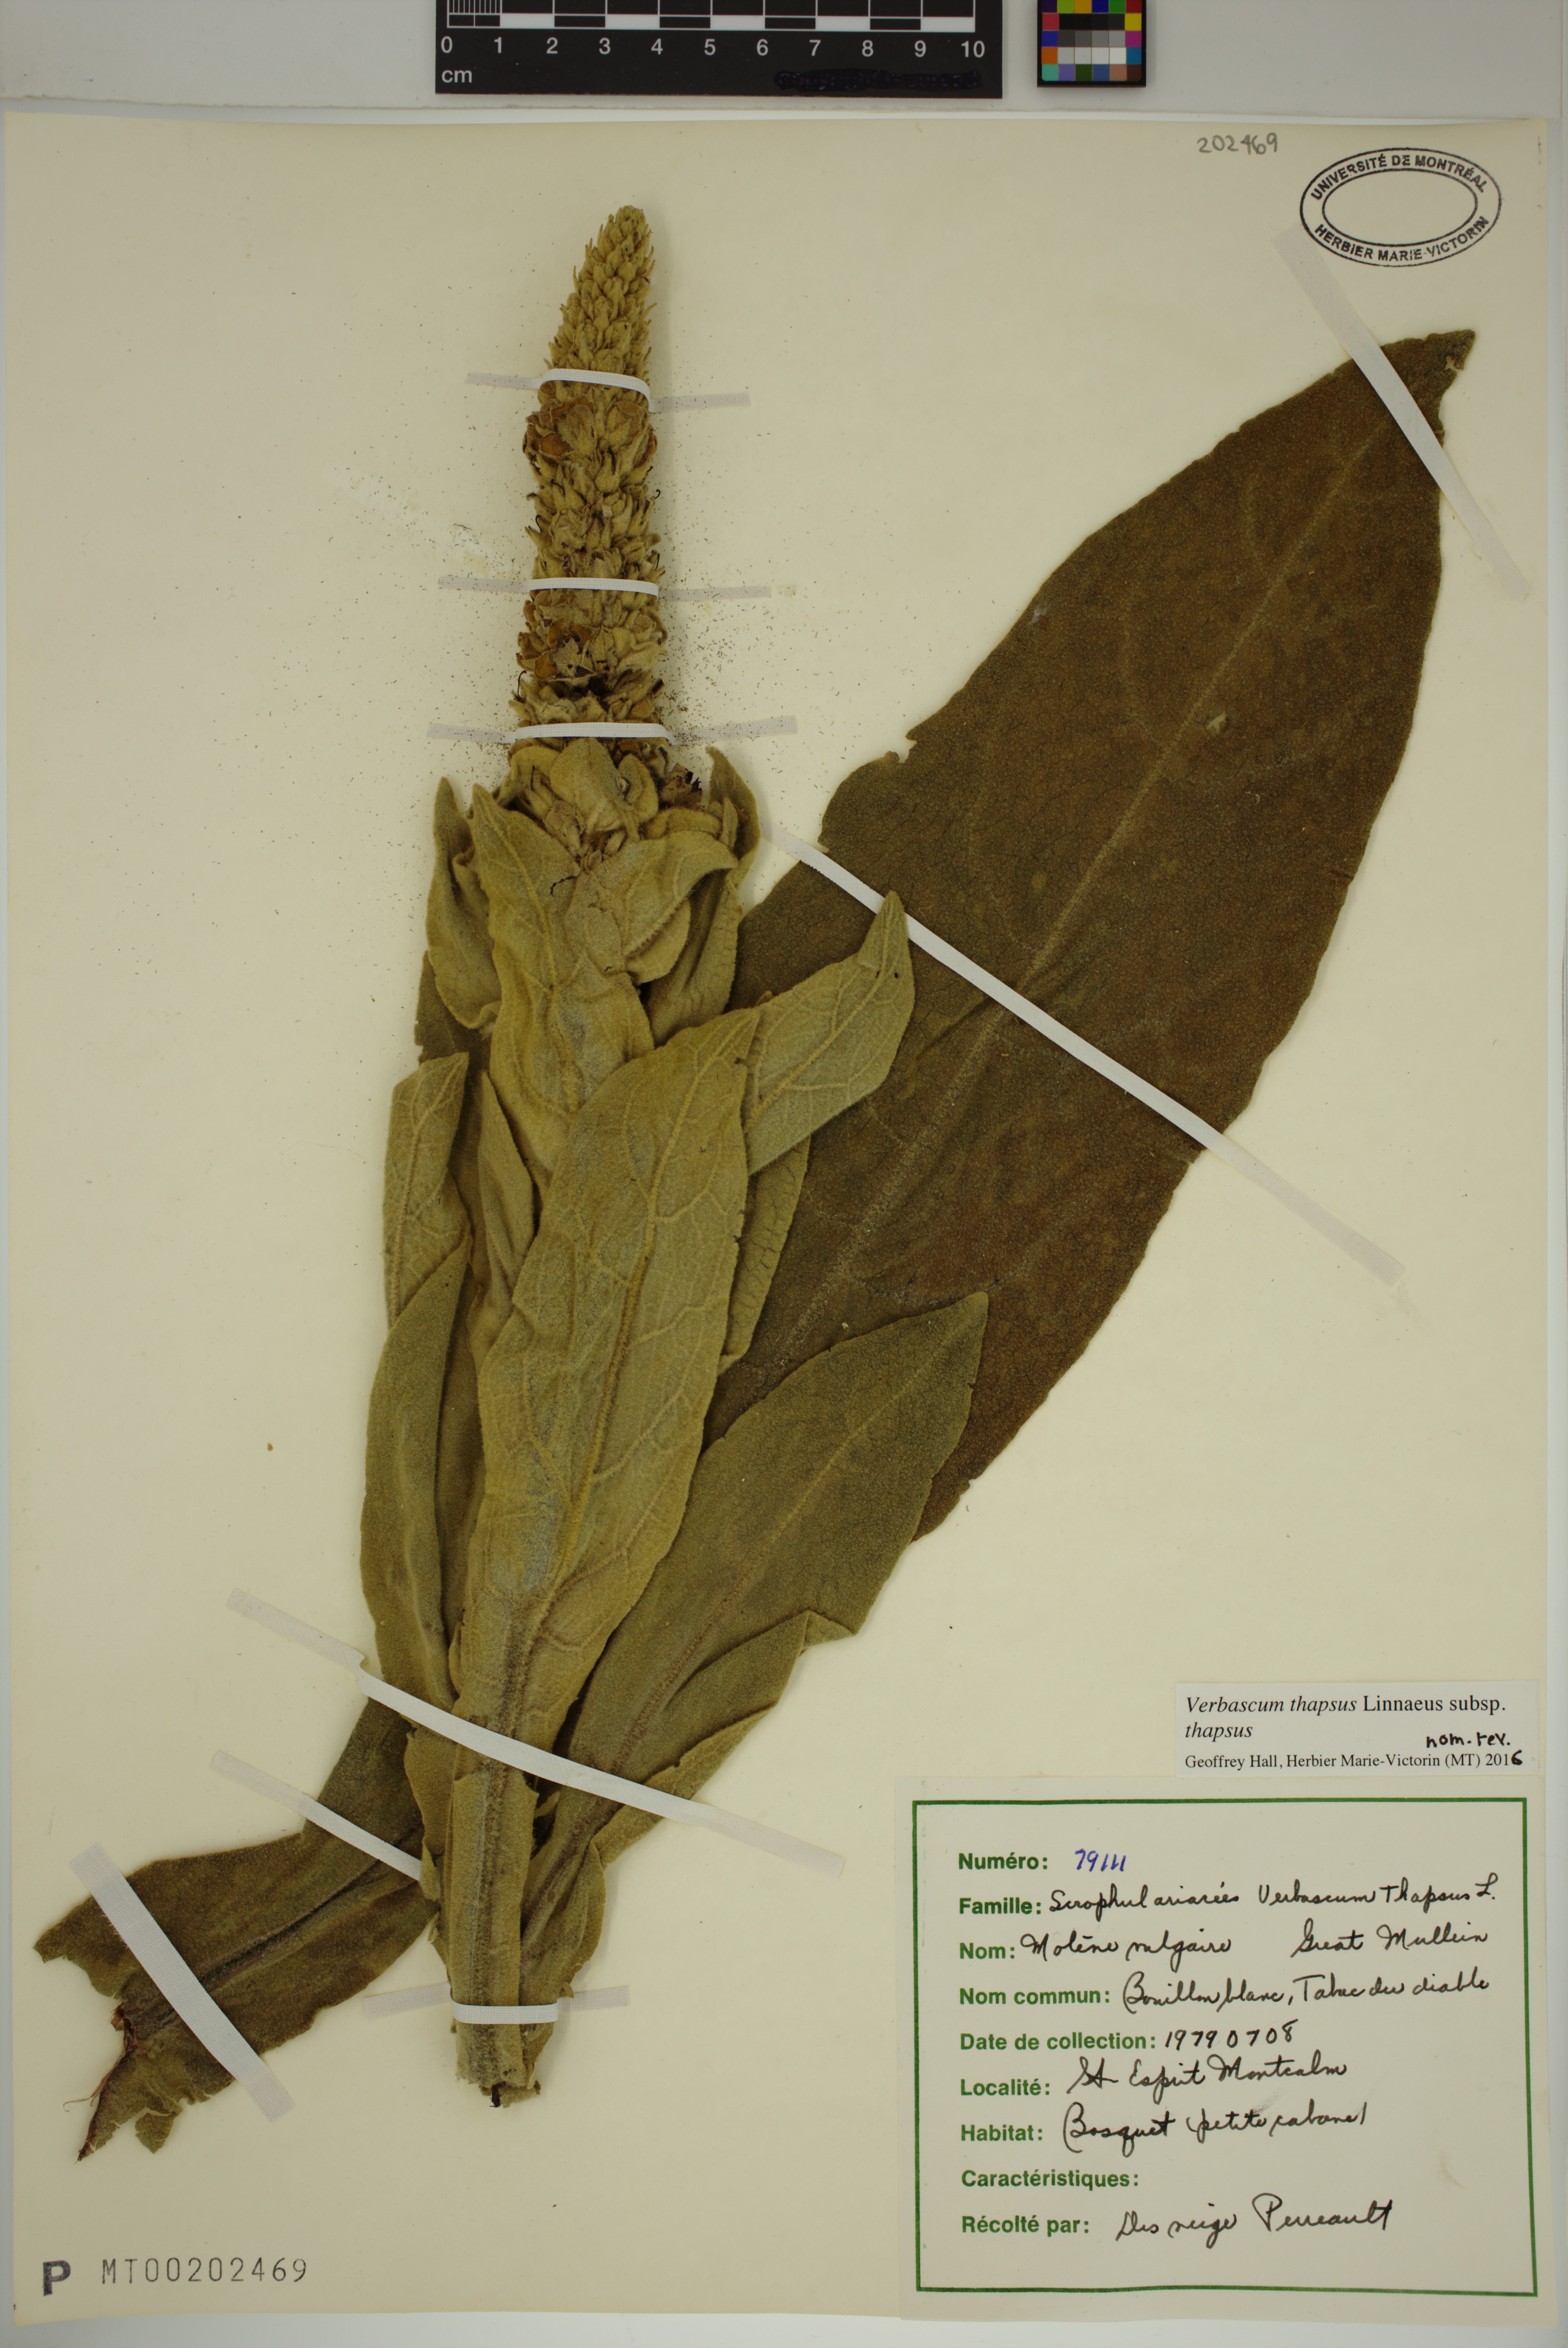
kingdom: Plantae
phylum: Tracheophyta
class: Magnoliopsida
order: Lamiales
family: Scrophulariaceae
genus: Verbascum
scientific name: Verbascum thapsus
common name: Common mullein
